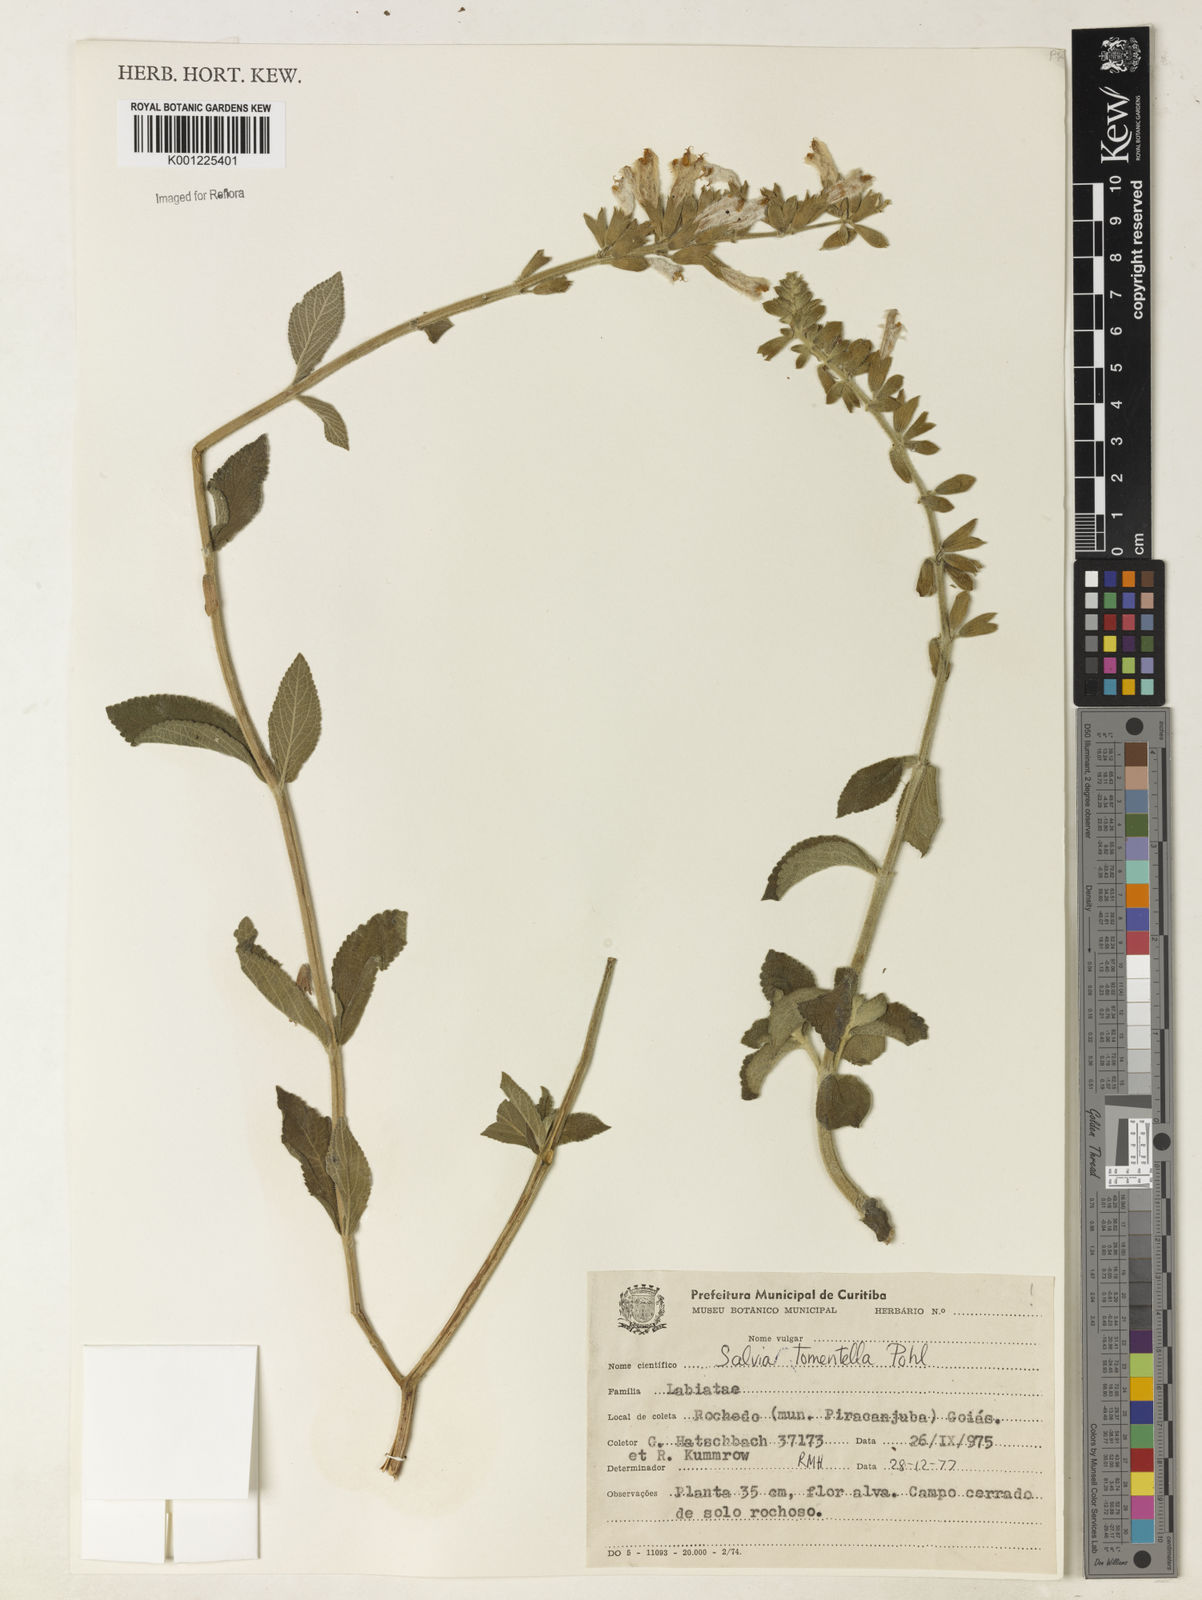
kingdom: Plantae
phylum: Tracheophyta
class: Magnoliopsida
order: Lamiales
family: Lamiaceae
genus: Salvia
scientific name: Salvia tomentella
